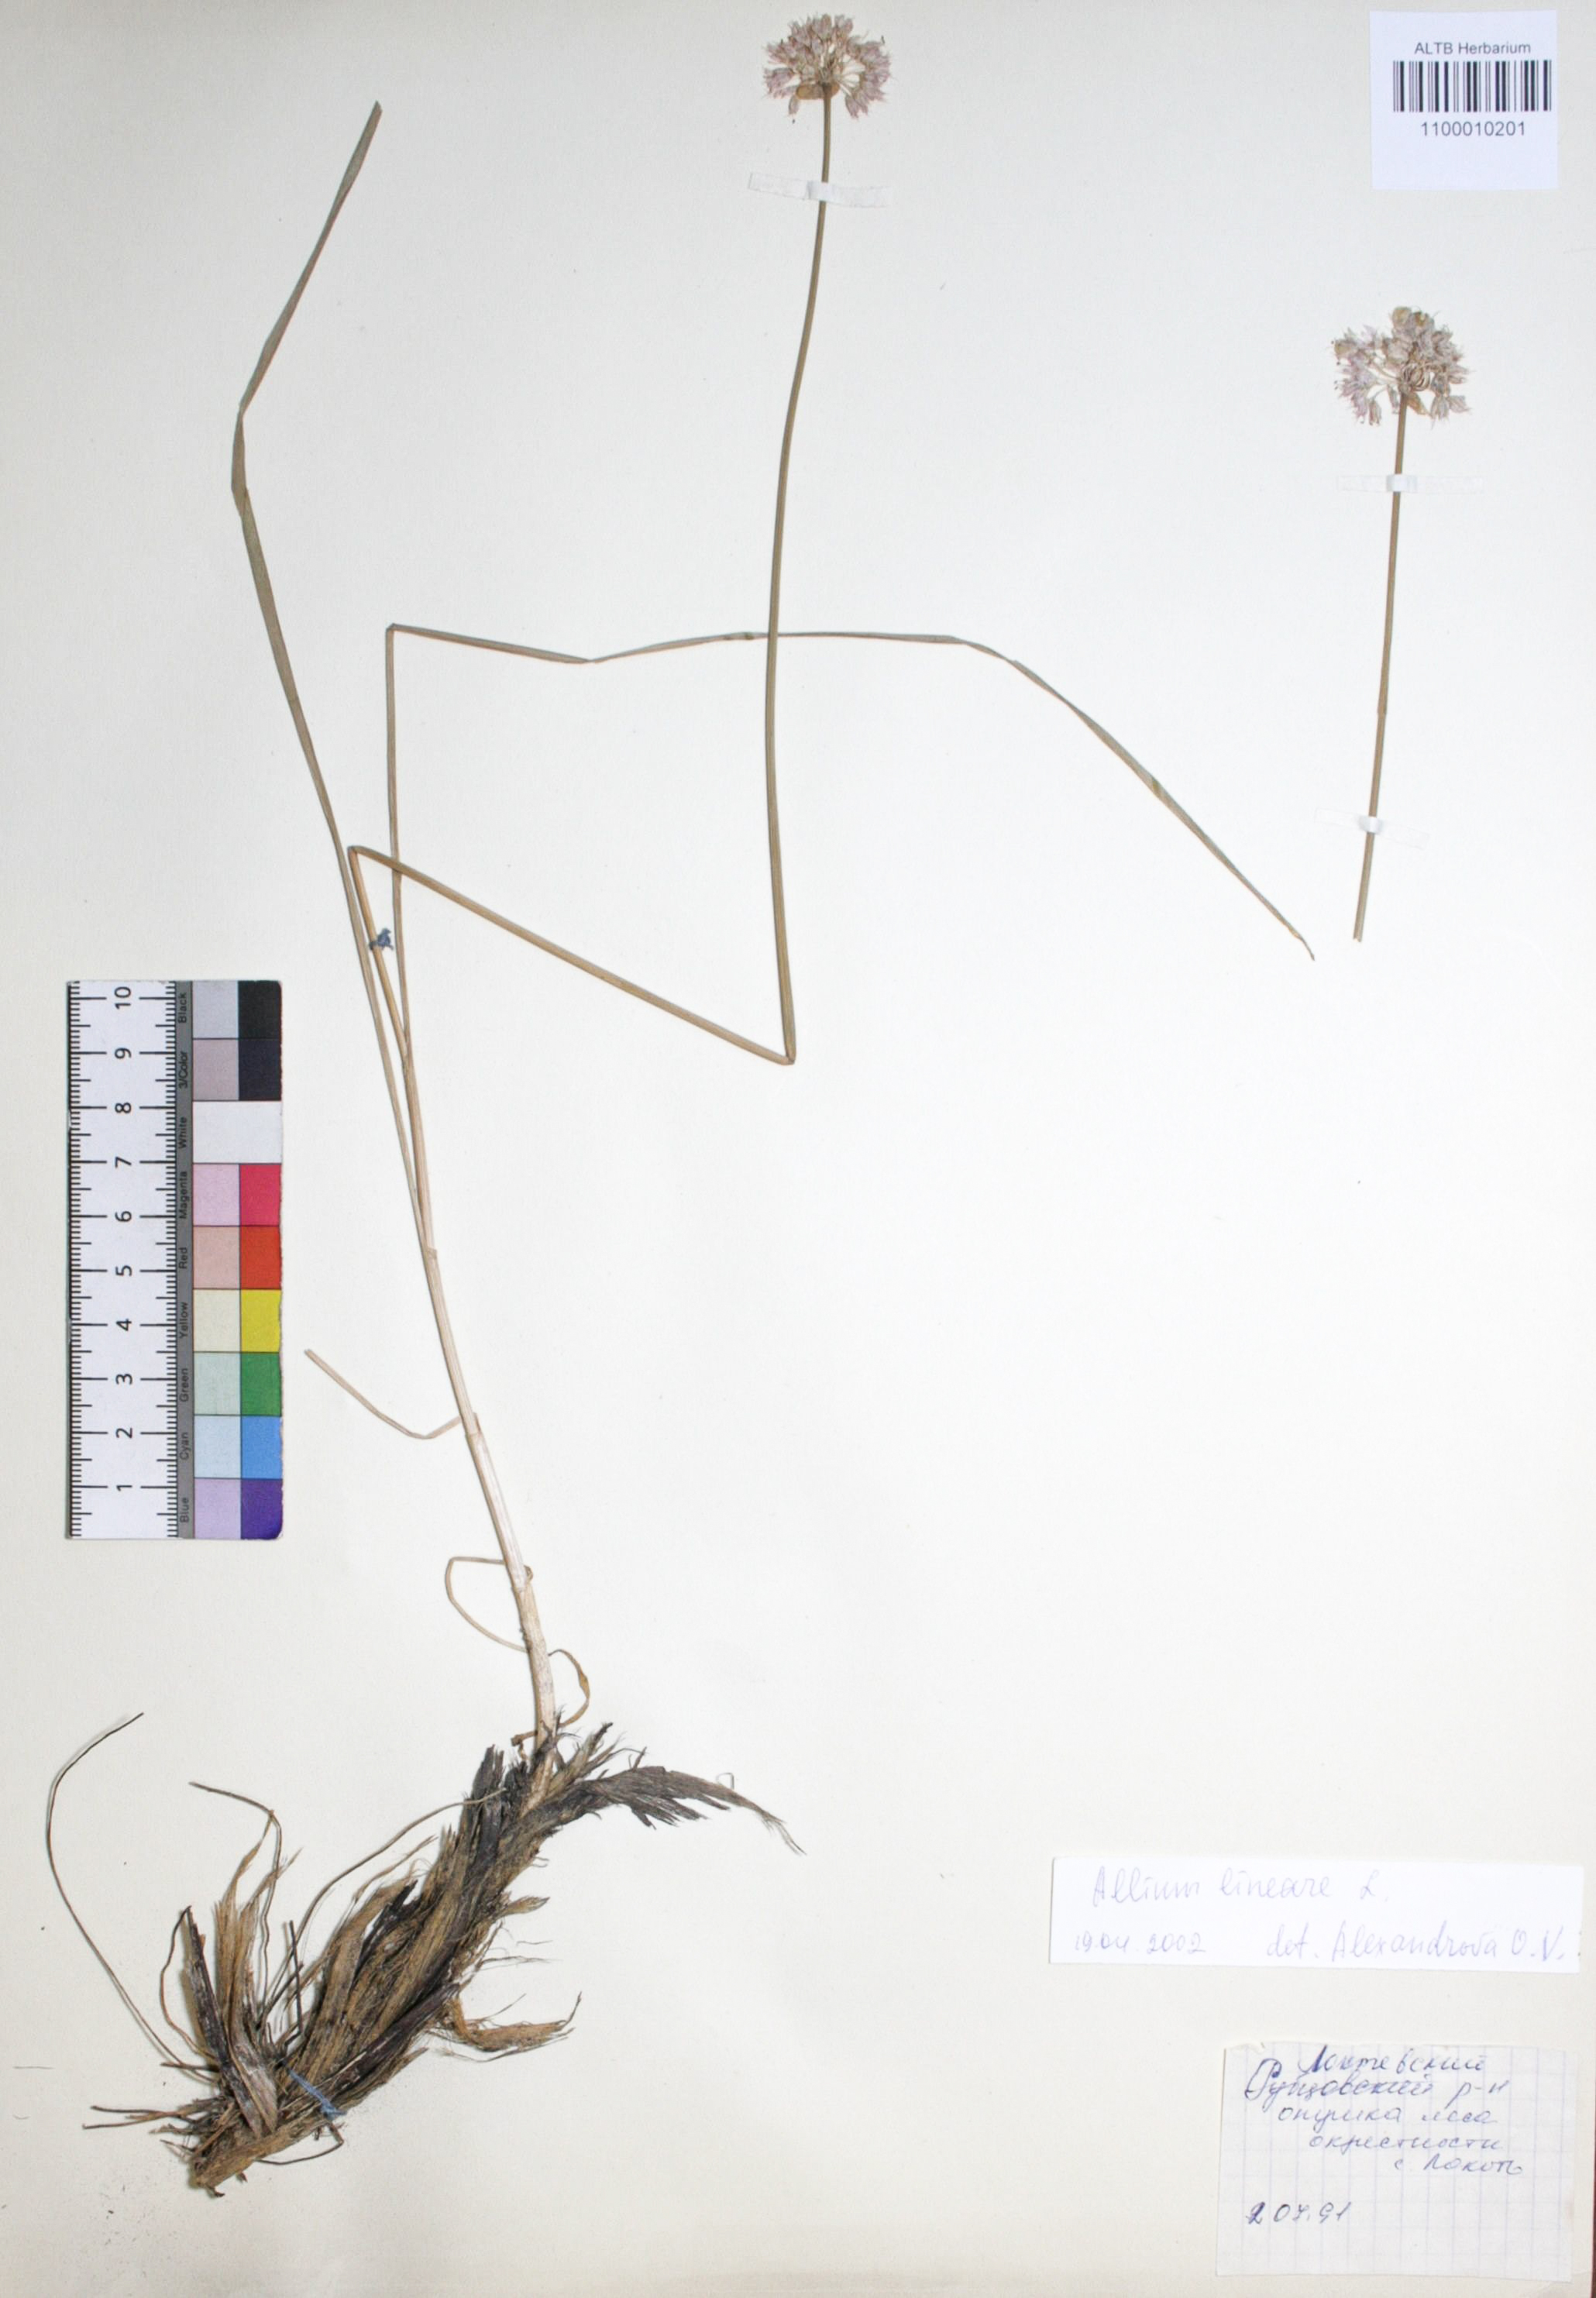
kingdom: Plantae
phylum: Tracheophyta
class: Liliopsida
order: Asparagales
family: Amaryllidaceae
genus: Allium
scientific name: Allium lineare
